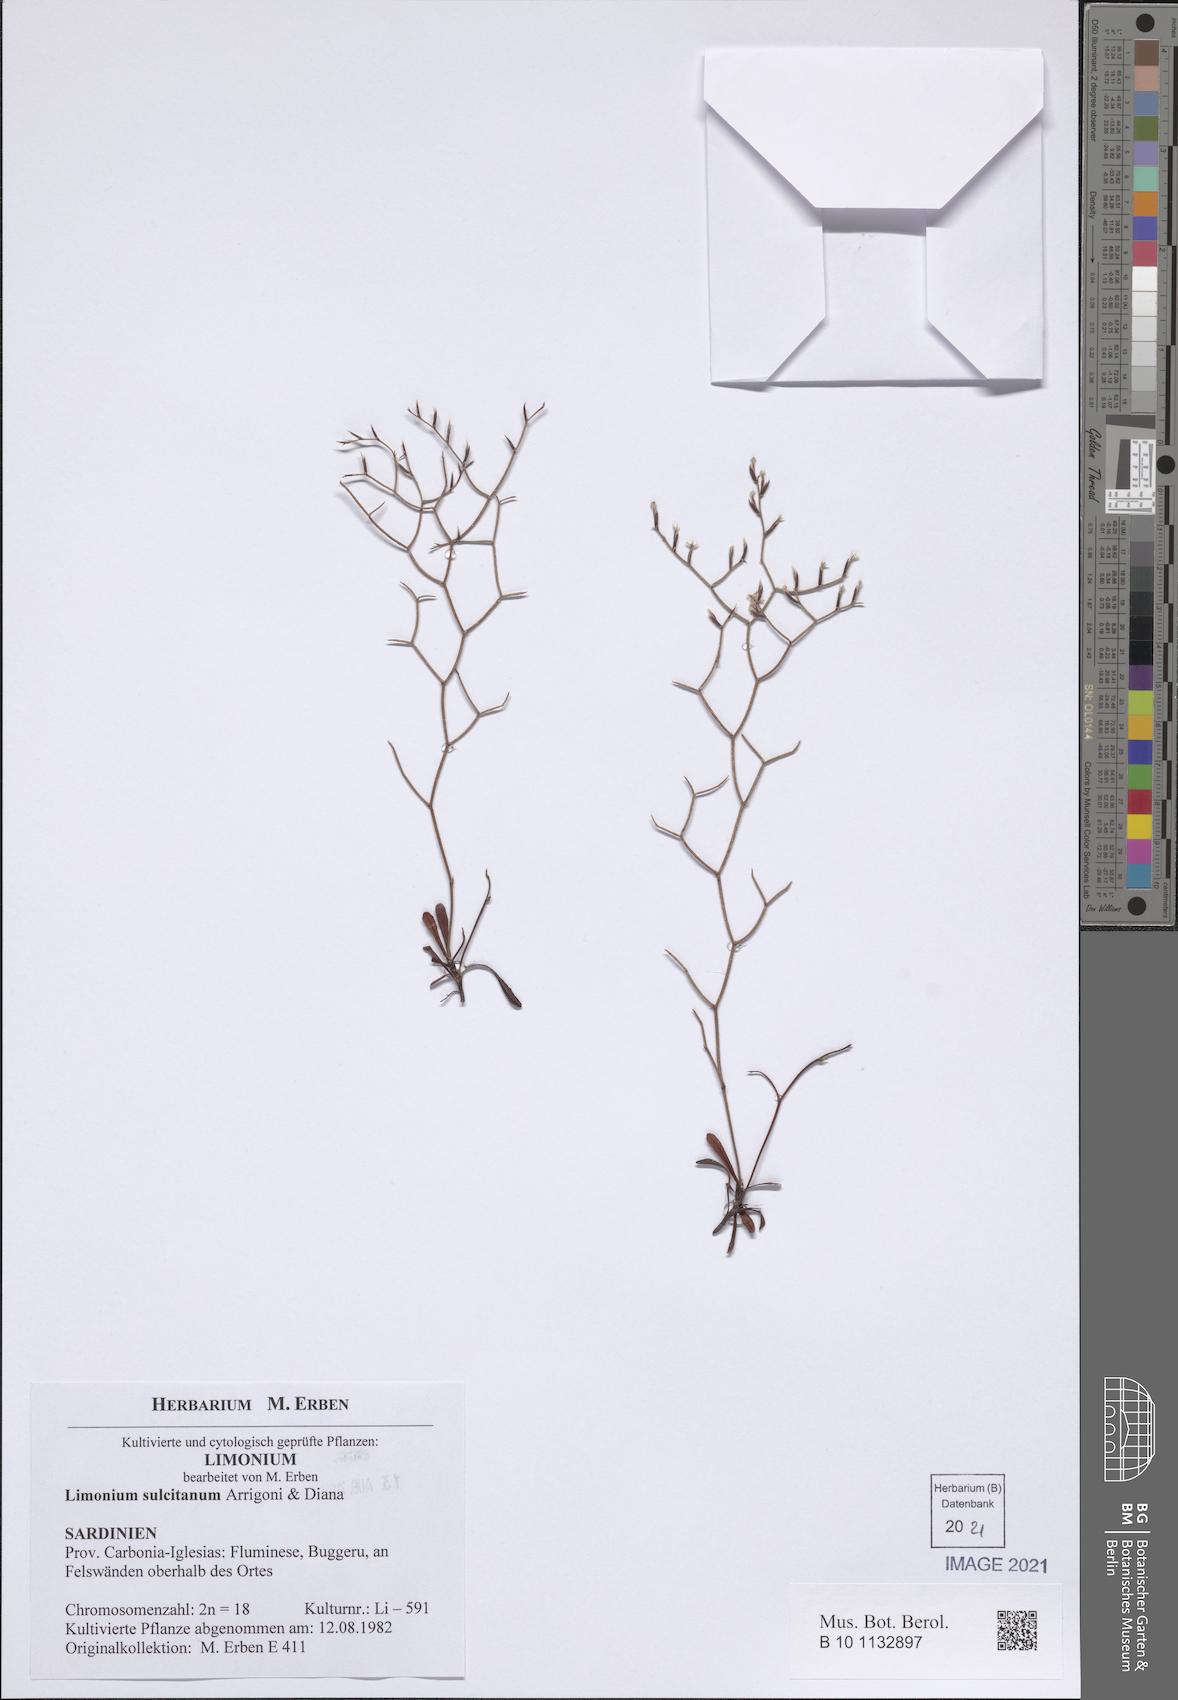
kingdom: Plantae
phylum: Tracheophyta
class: Magnoliopsida
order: Caryophyllales
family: Plumbaginaceae
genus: Limonium
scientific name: Limonium sulcitanum
